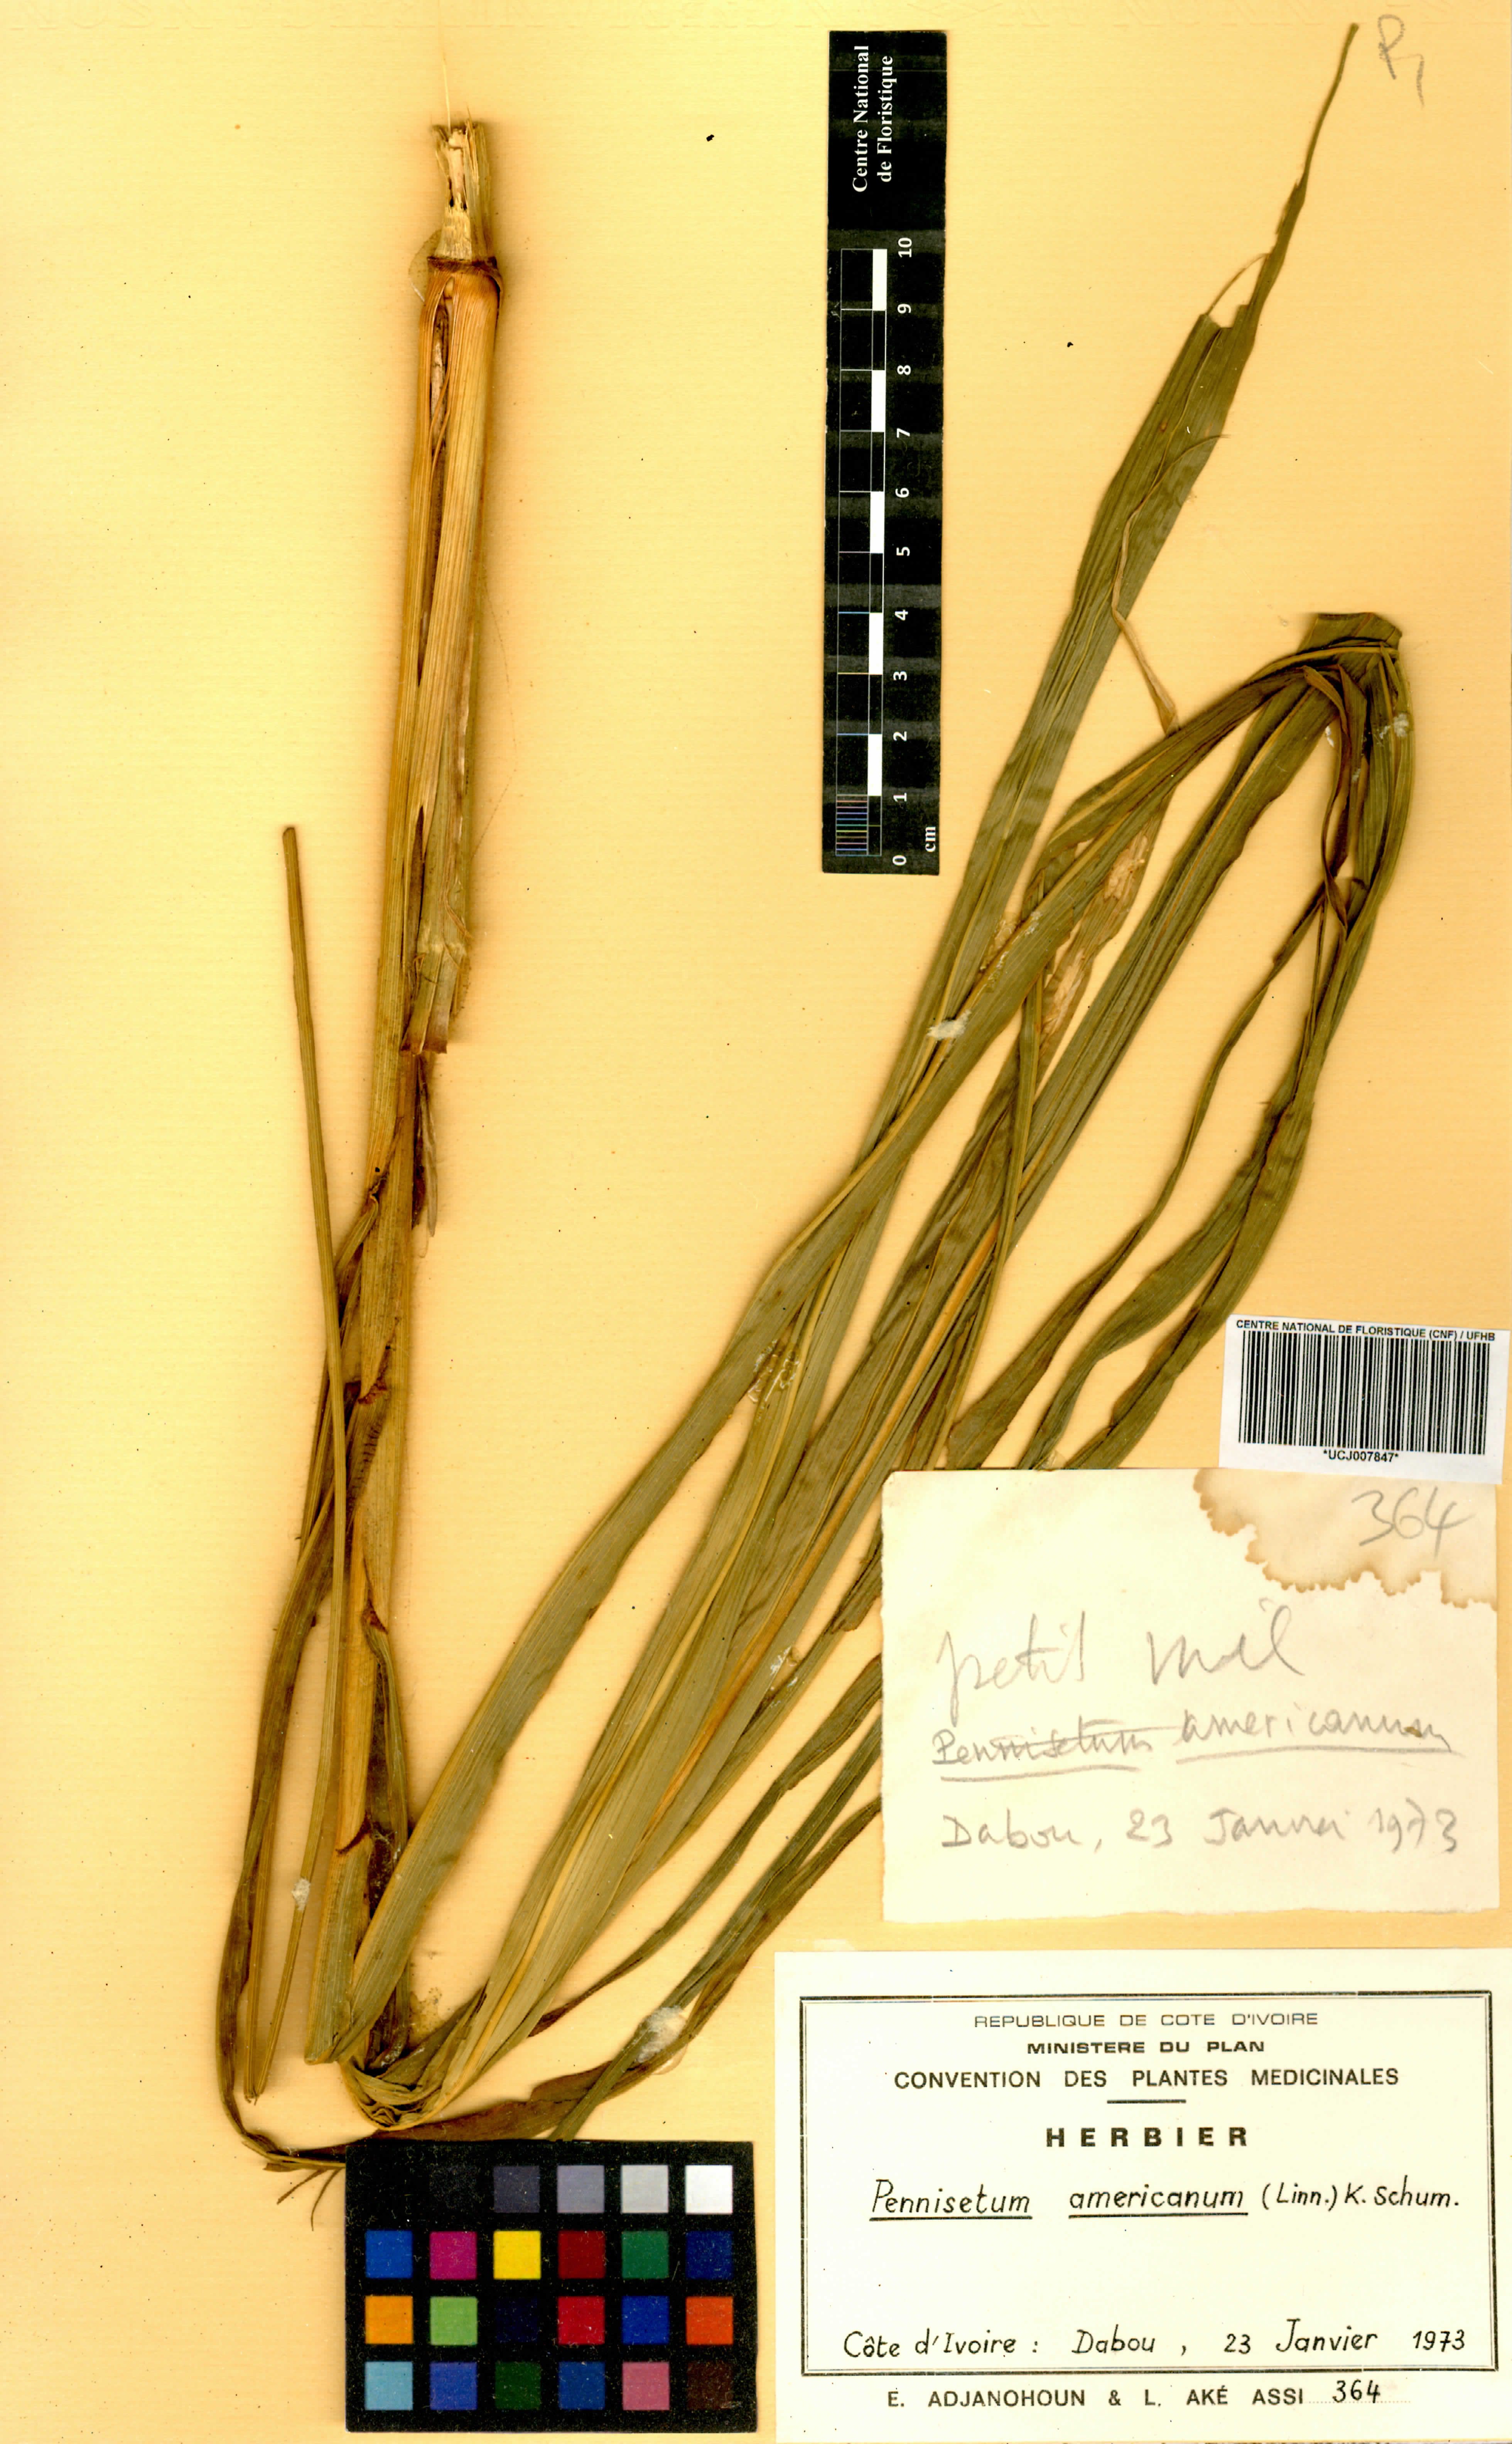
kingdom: Plantae
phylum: Tracheophyta
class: Liliopsida
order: Poales
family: Poaceae
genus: Cenchrus
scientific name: Cenchrus americanus
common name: Pearl millet
